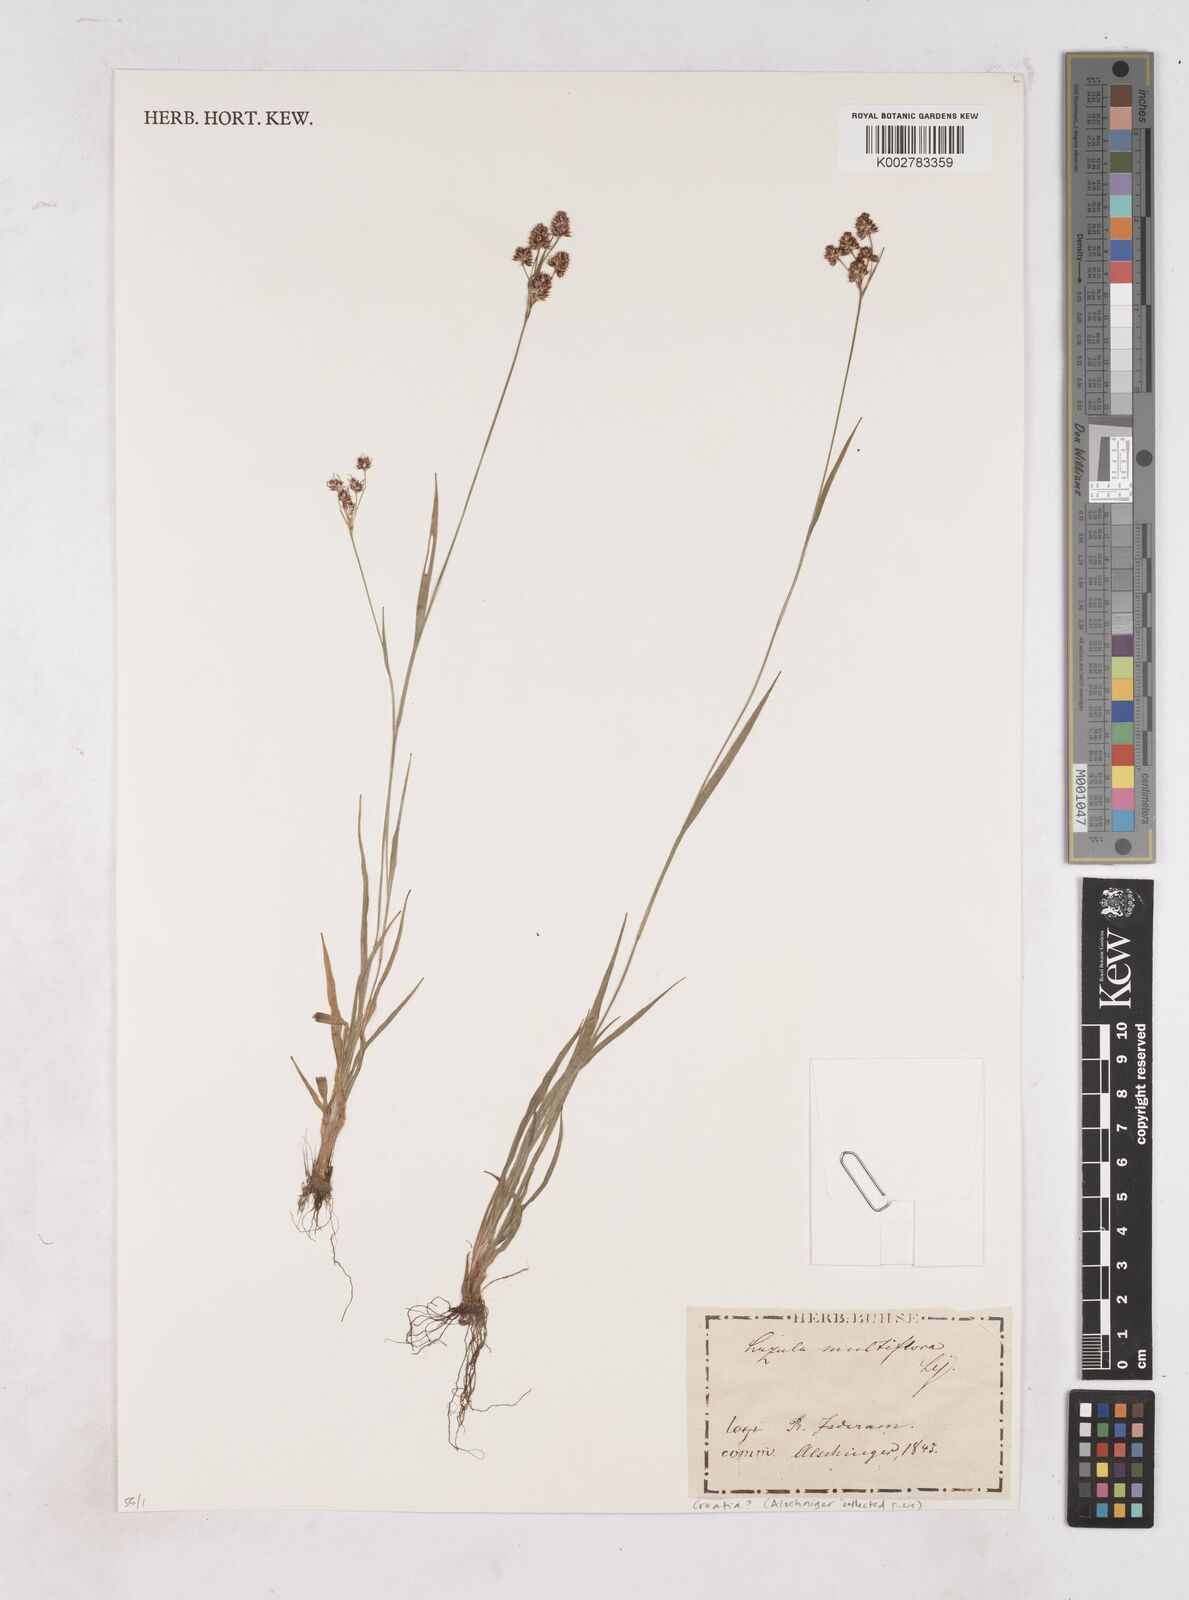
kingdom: Plantae
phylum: Tracheophyta
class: Liliopsida
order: Poales
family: Juncaceae
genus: Luzula
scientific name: Luzula multiflora
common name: Heath wood-rush
